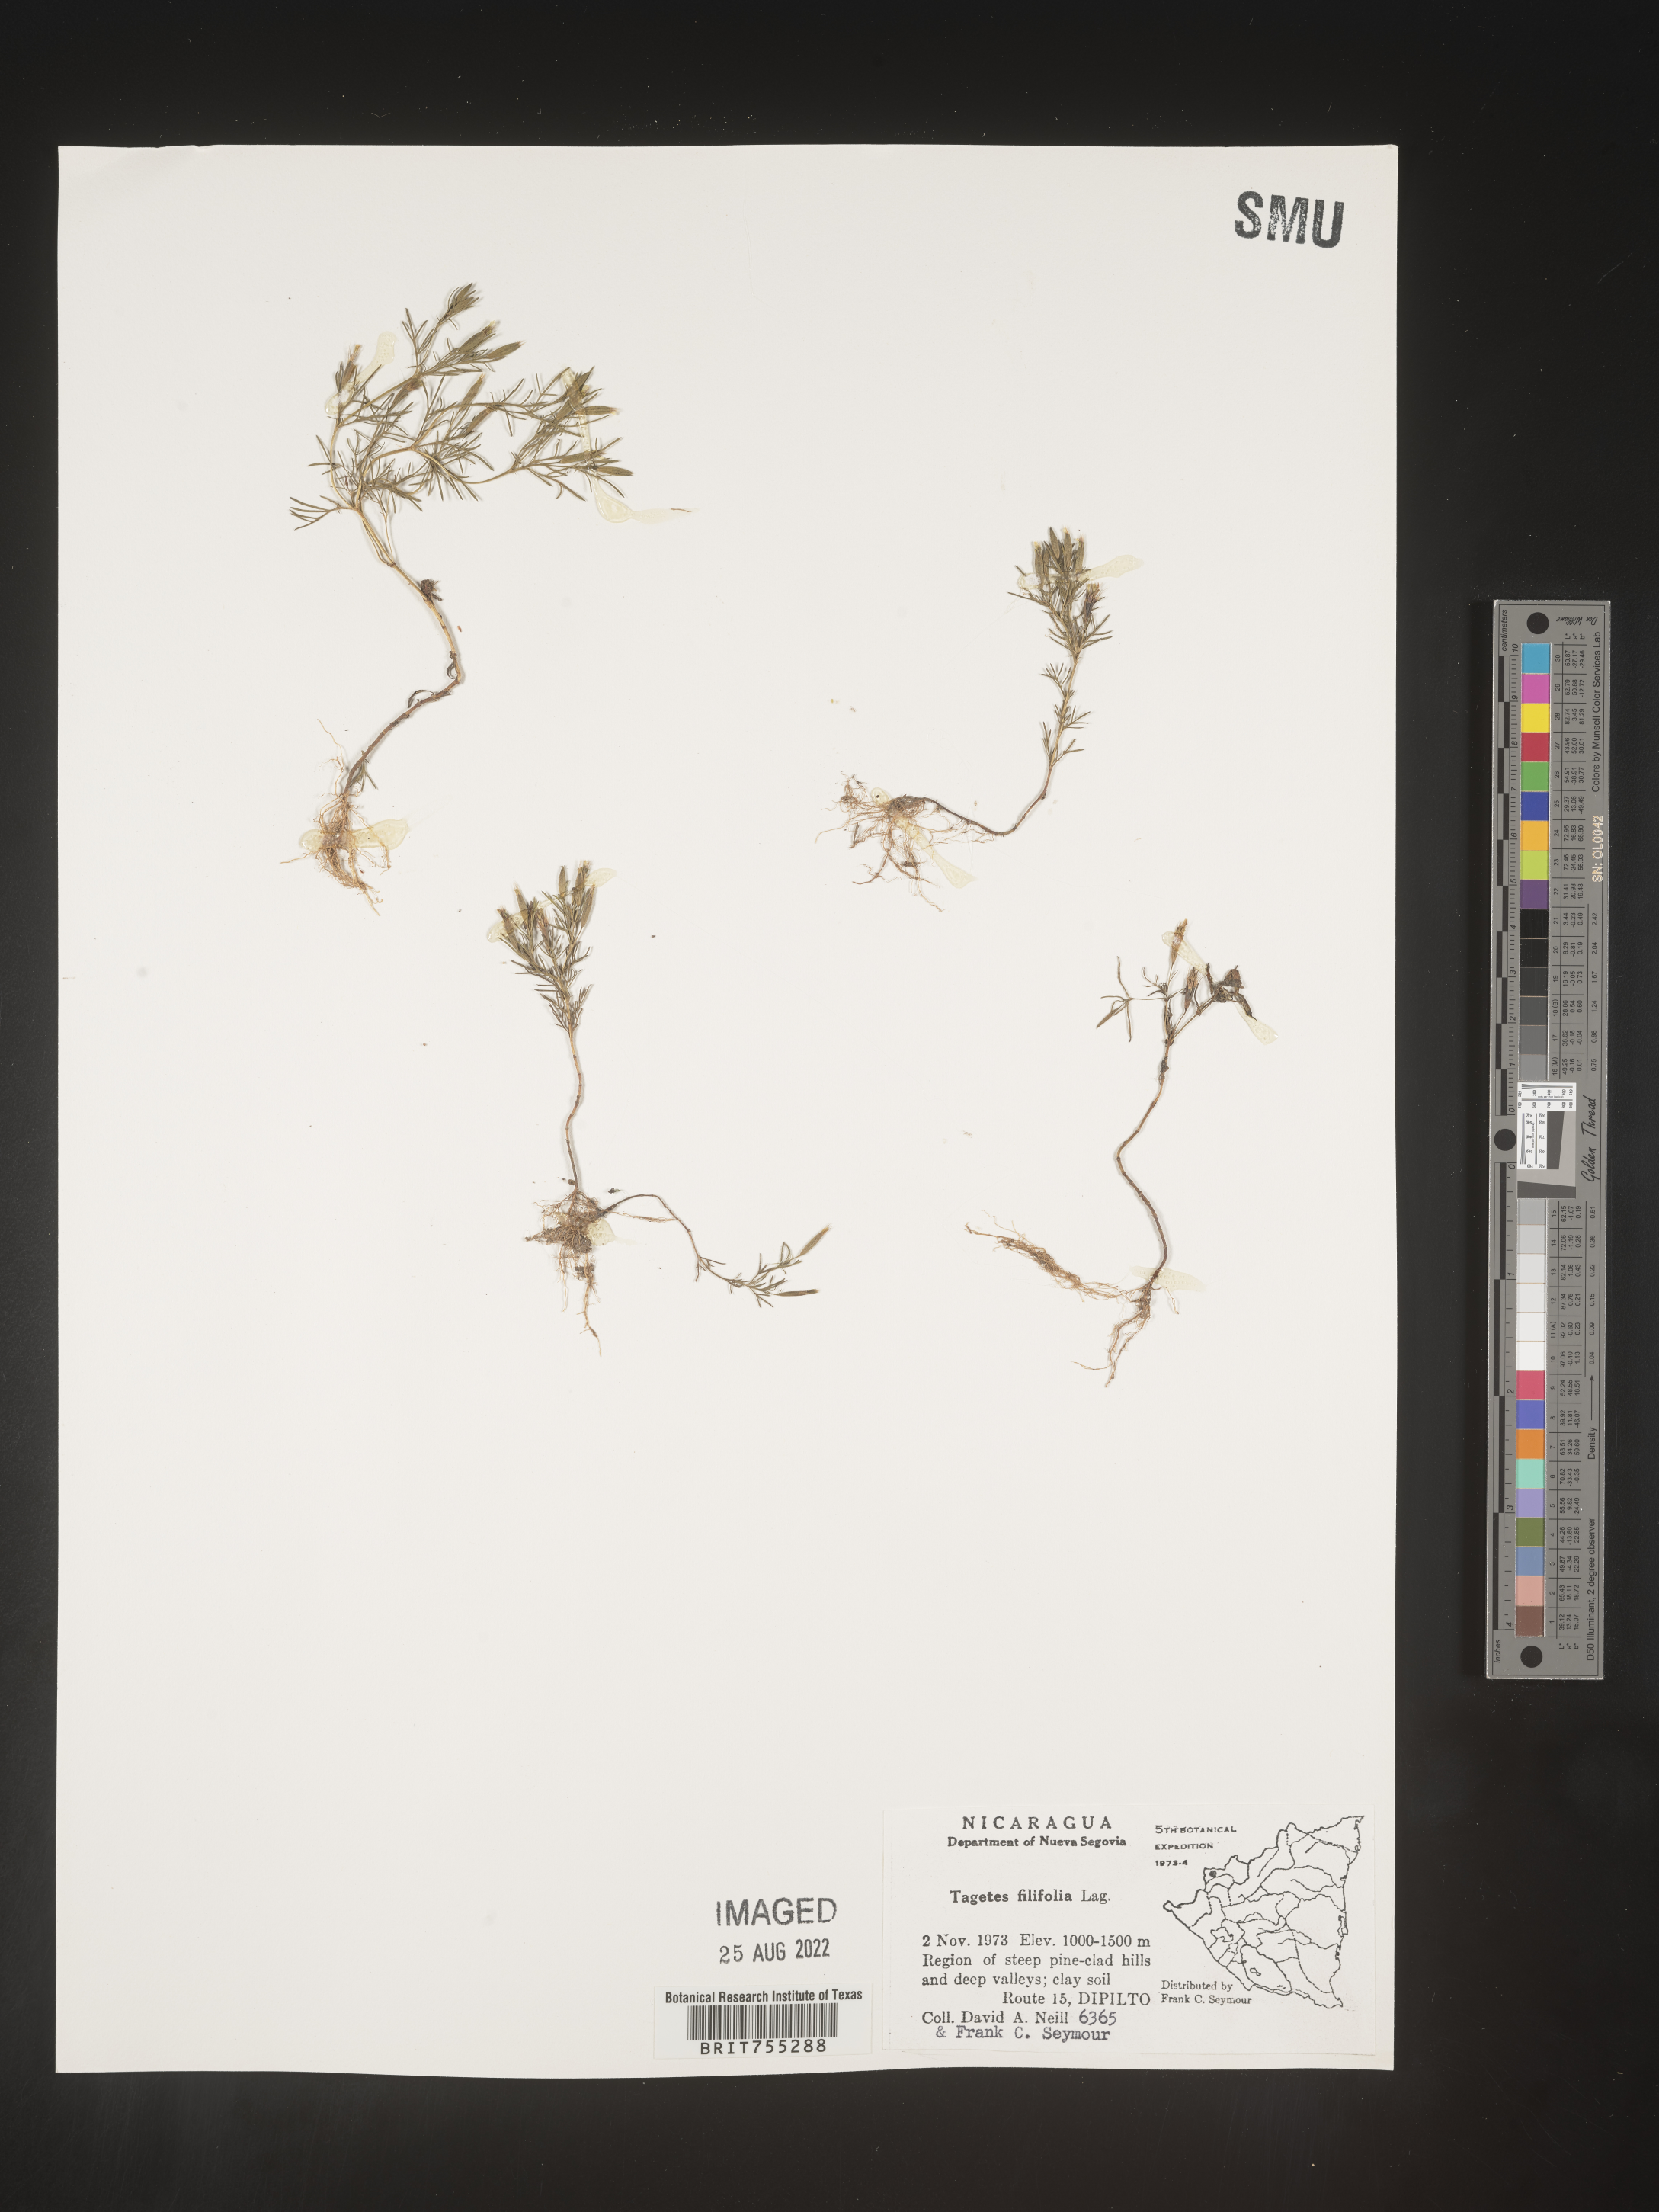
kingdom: Plantae
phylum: Tracheophyta
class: Magnoliopsida
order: Asterales
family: Asteraceae
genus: Tagetes
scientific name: Tagetes
